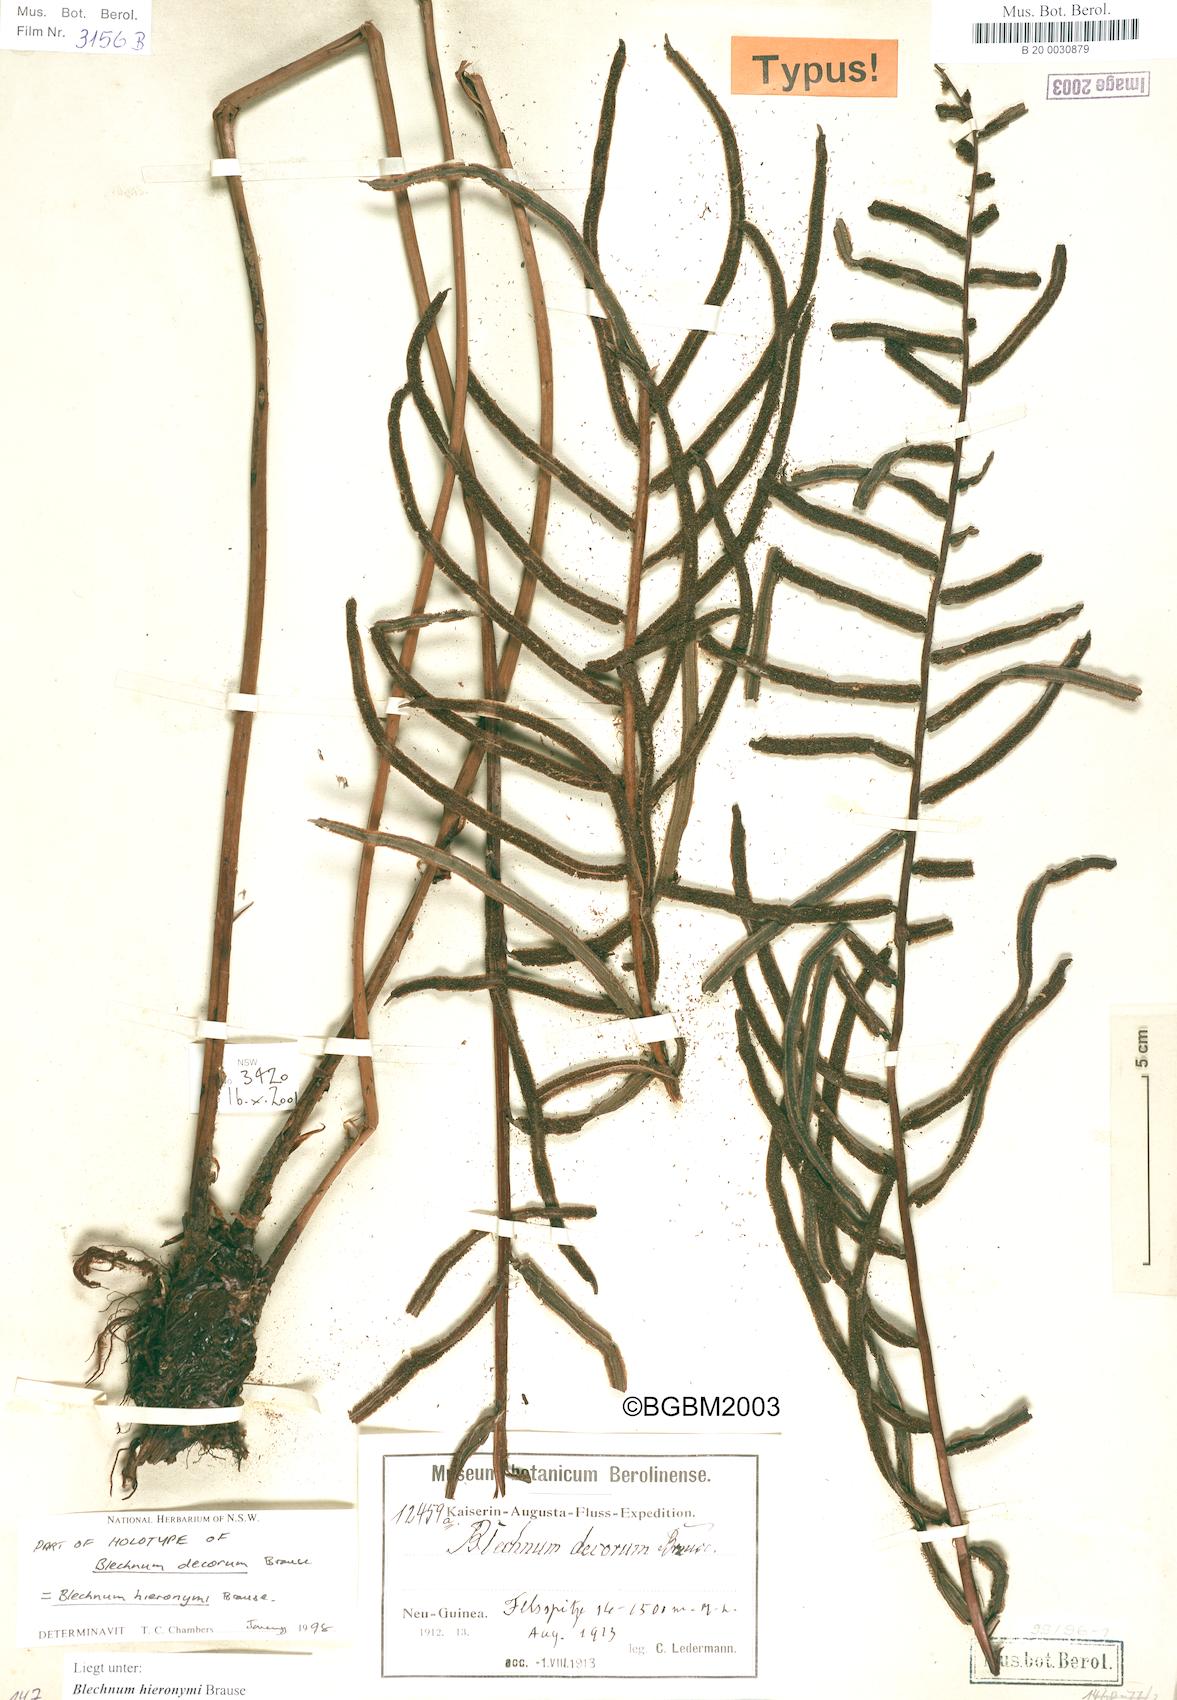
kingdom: Plantae
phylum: Tracheophyta
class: Polypodiopsida
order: Polypodiales
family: Blechnaceae
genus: Parablechnum
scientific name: Parablechnum hieronymi
